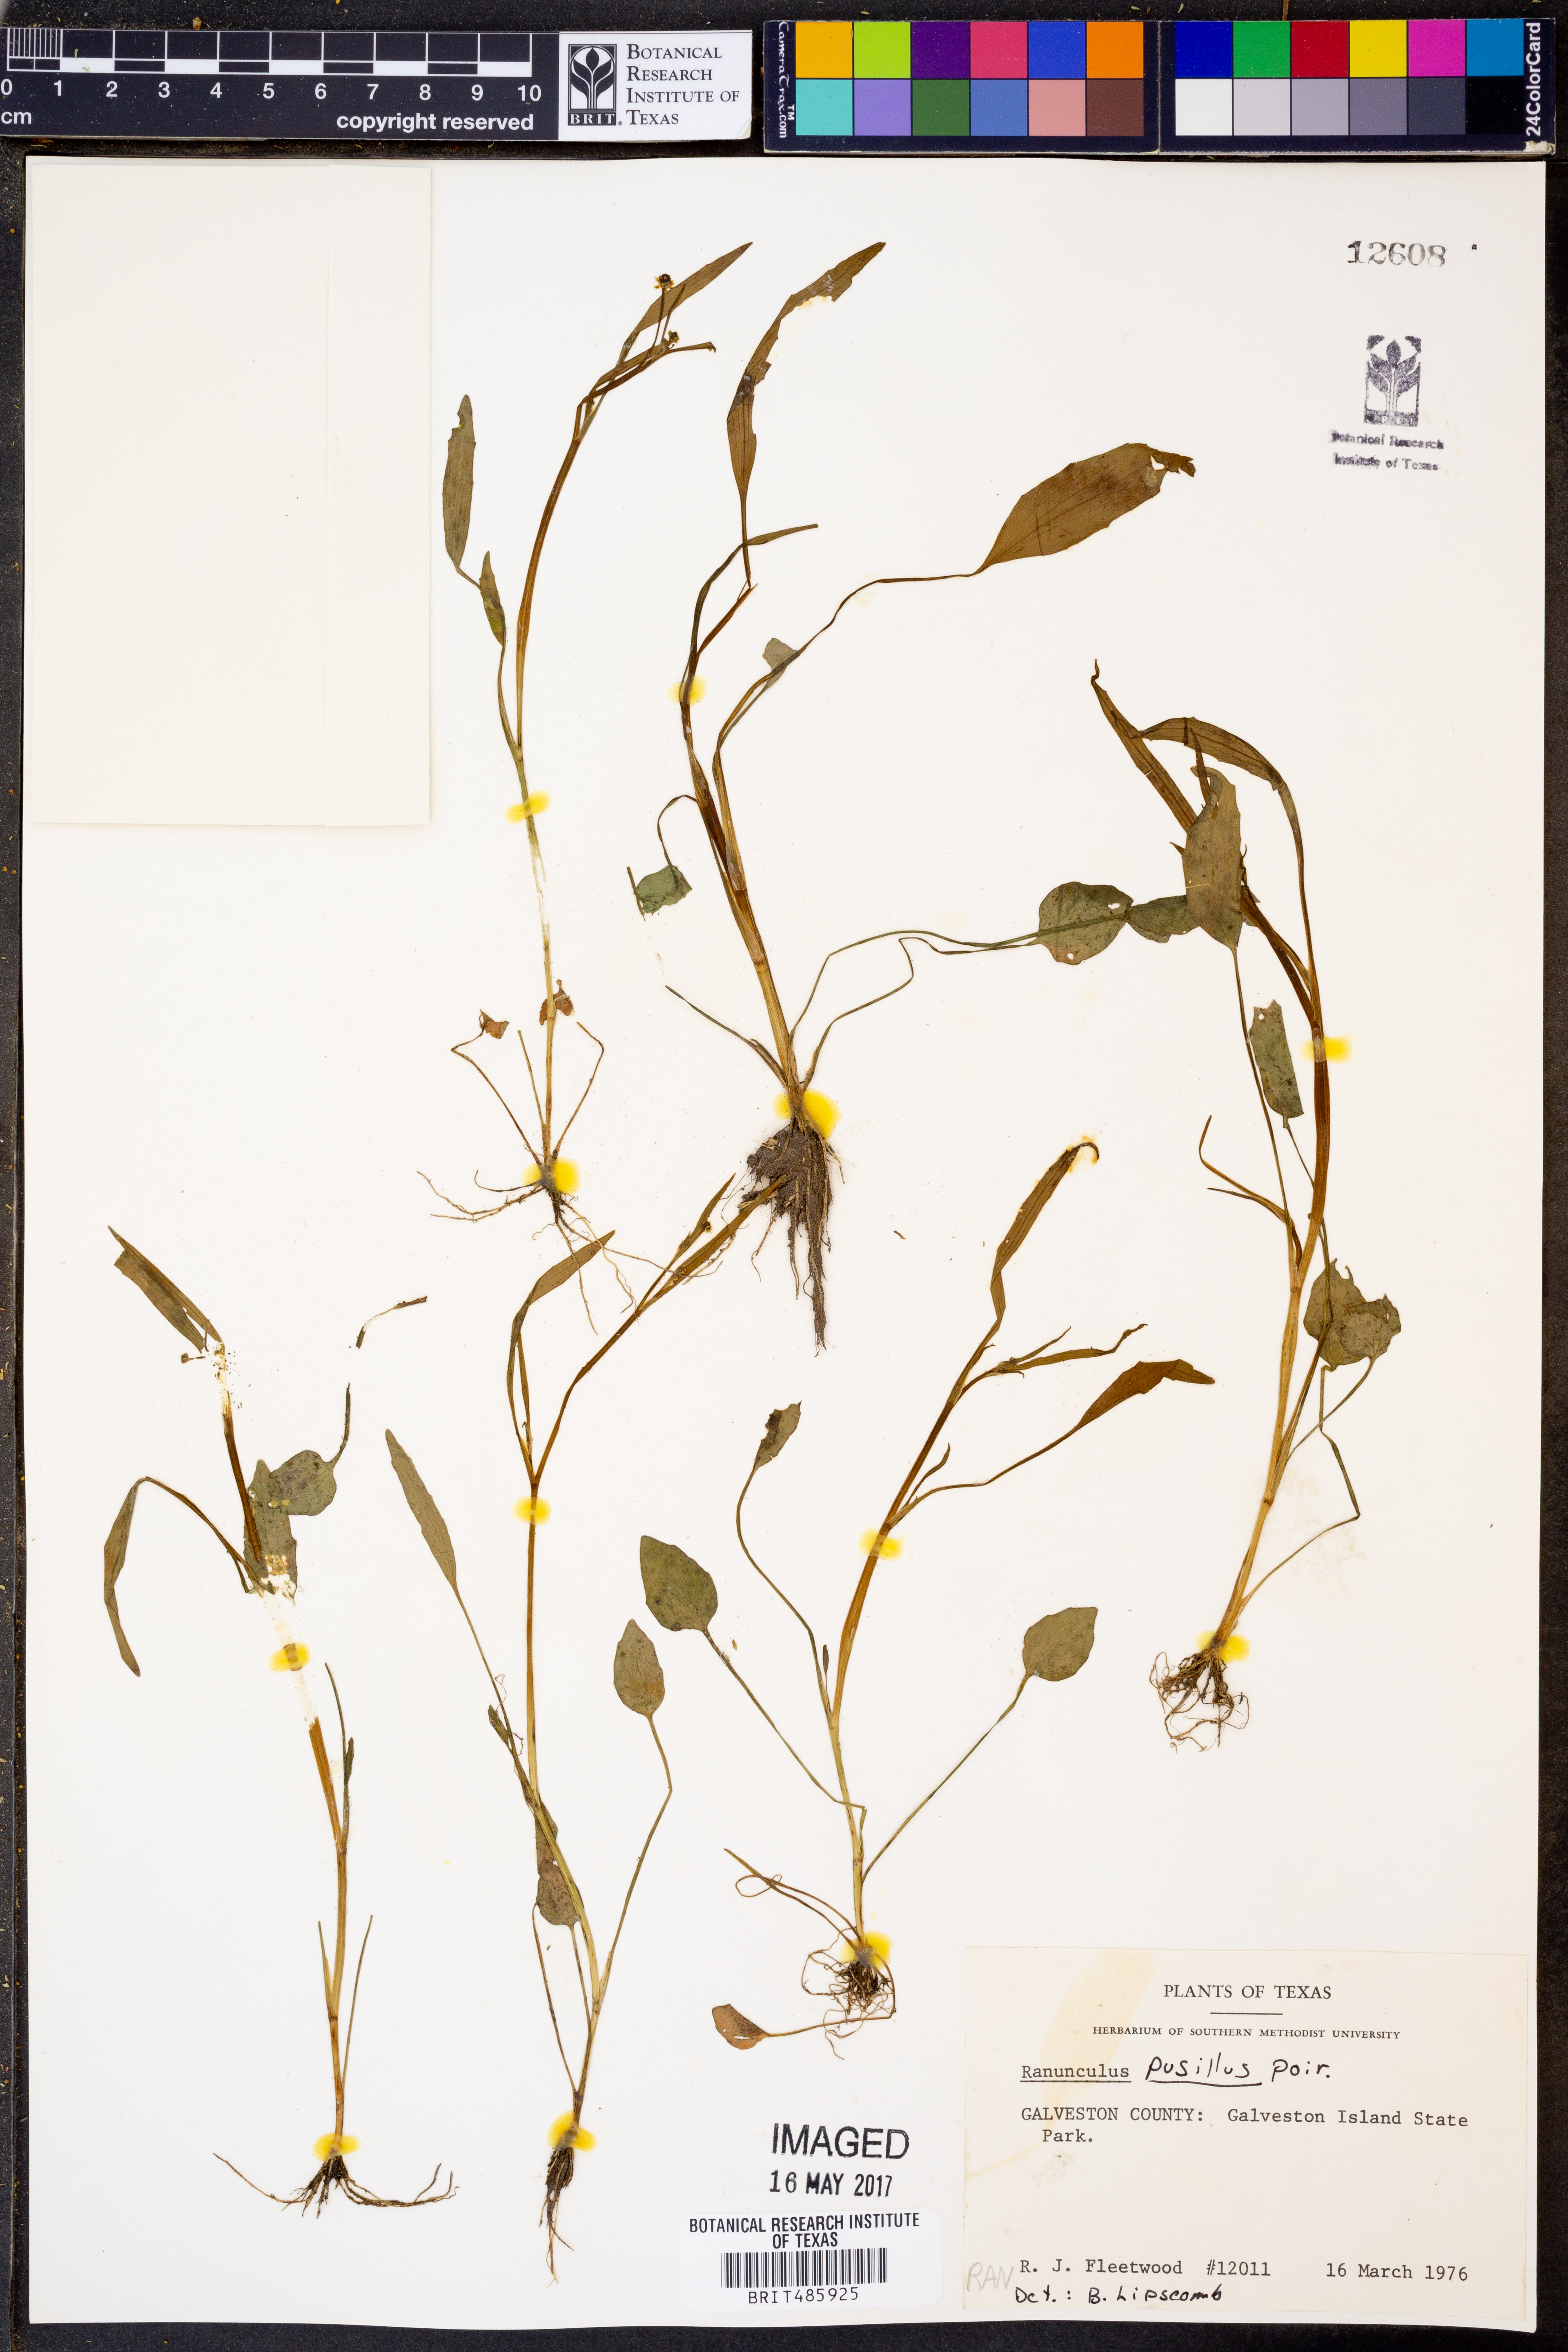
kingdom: Plantae
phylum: Tracheophyta
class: Magnoliopsida
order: Ranunculales
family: Ranunculaceae
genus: Ranunculus
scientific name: Ranunculus pusillus
